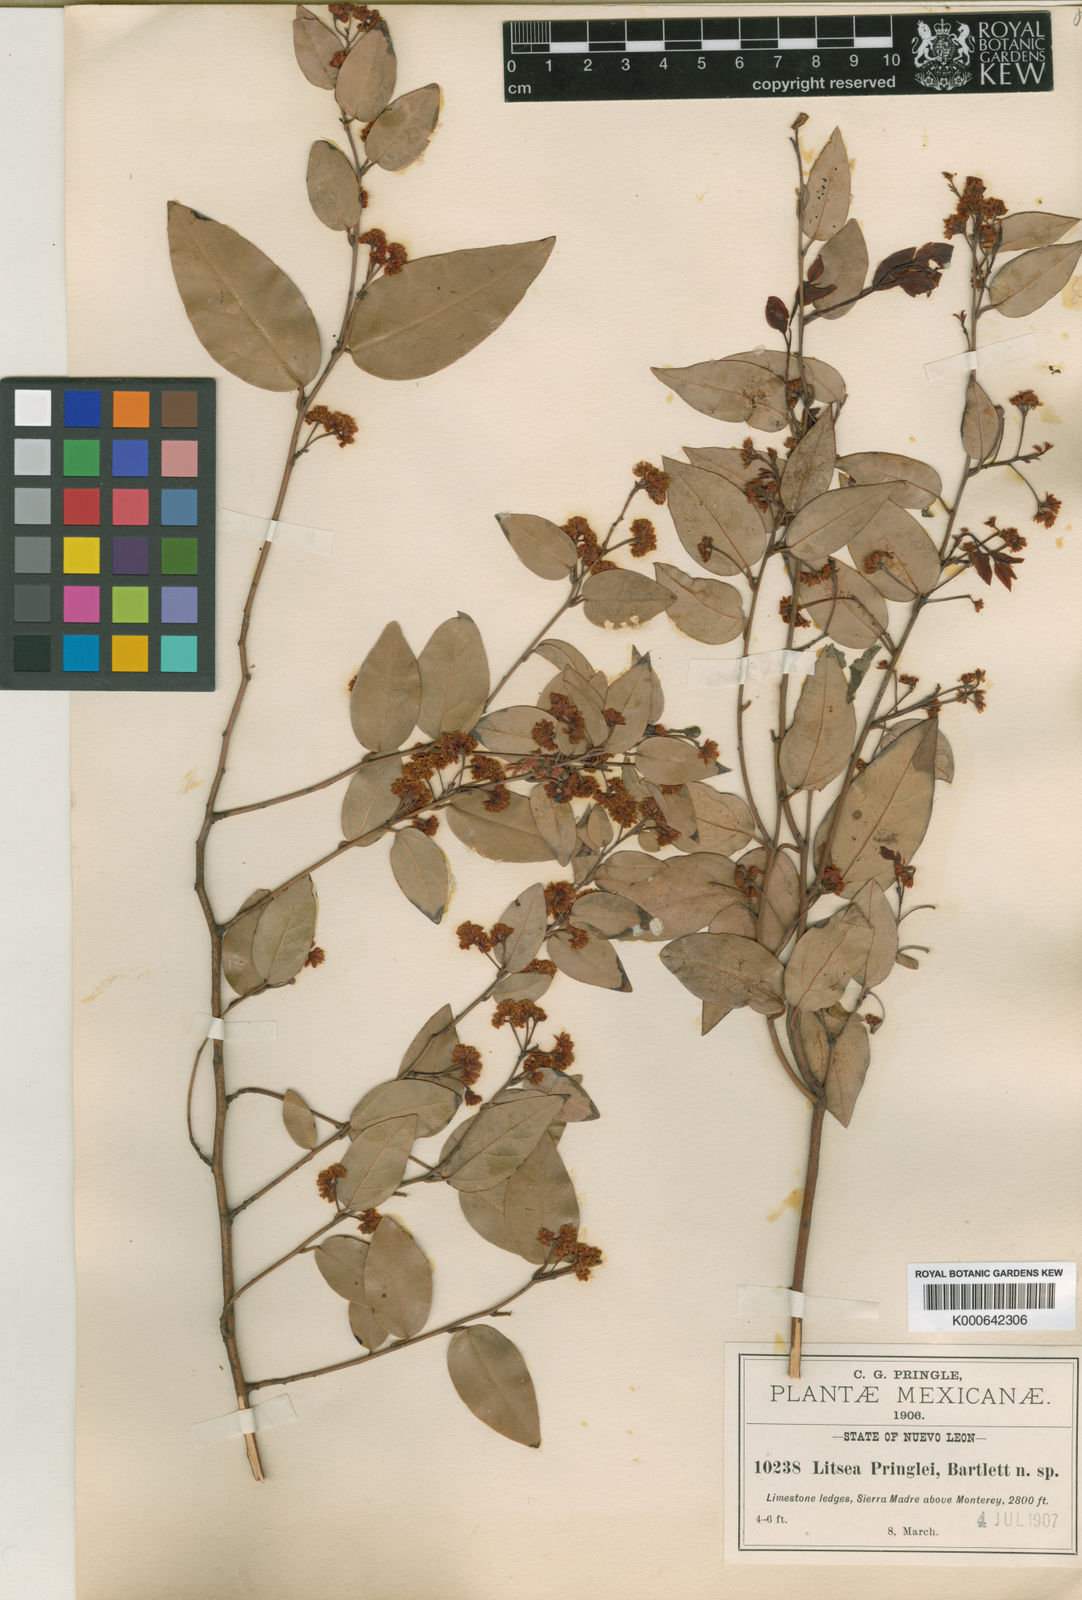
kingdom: Plantae
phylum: Tracheophyta
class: Magnoliopsida
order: Laurales
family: Lauraceae
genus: Licaria
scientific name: Licaria triandra
